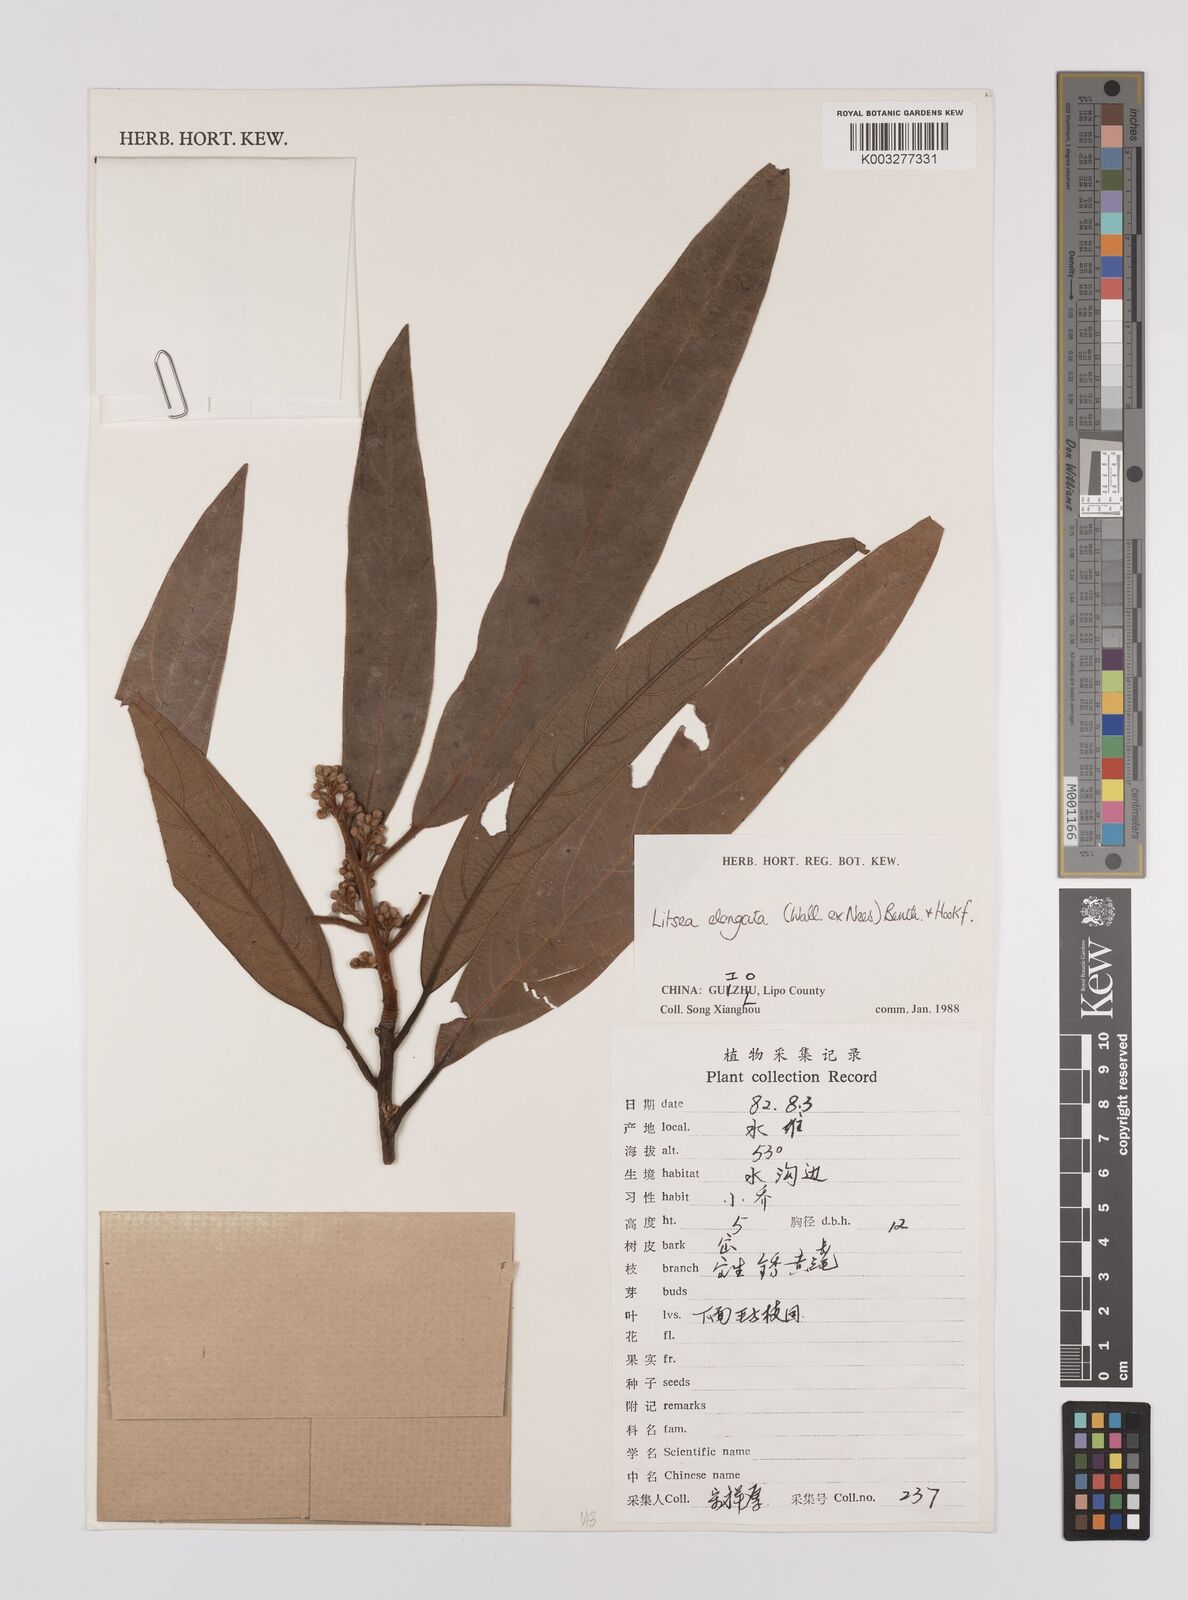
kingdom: Plantae
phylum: Tracheophyta
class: Magnoliopsida
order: Laurales
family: Lauraceae
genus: Litsea
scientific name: Litsea elongata
